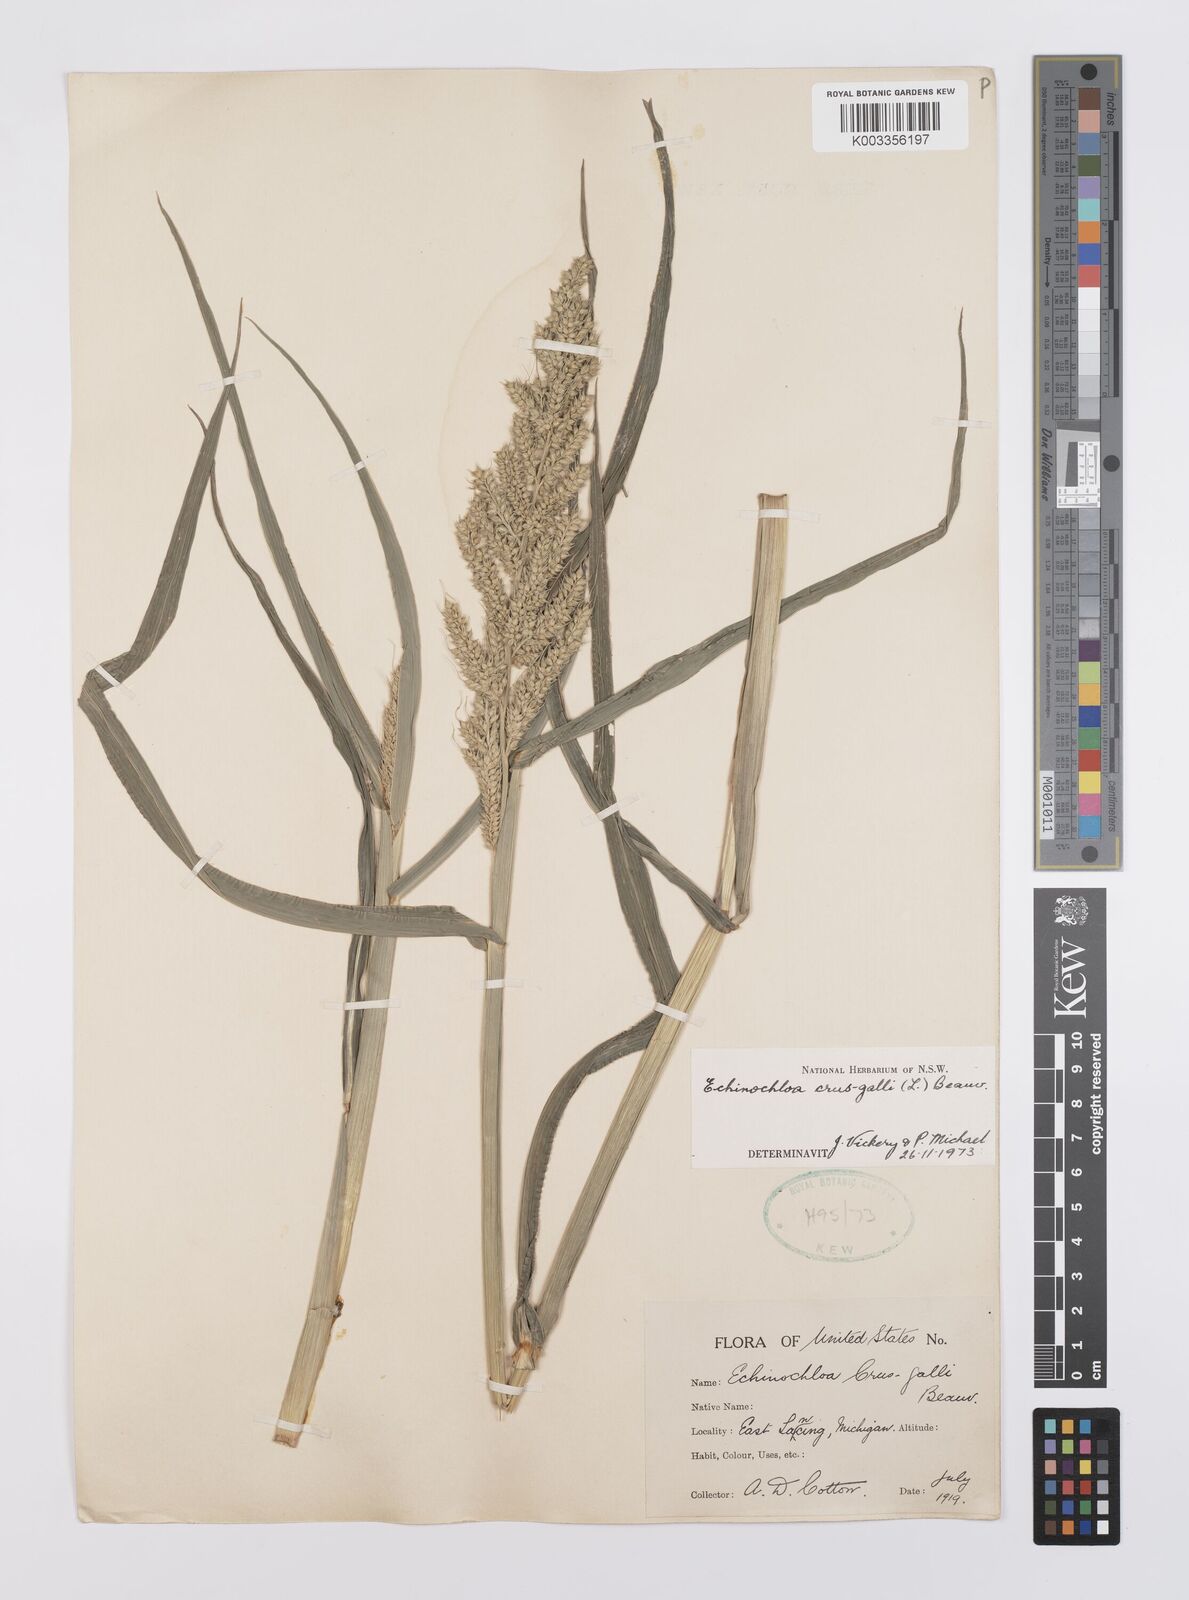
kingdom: Plantae
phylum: Tracheophyta
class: Liliopsida
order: Poales
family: Poaceae
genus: Echinochloa
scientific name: Echinochloa crus-galli
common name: Cockspur
